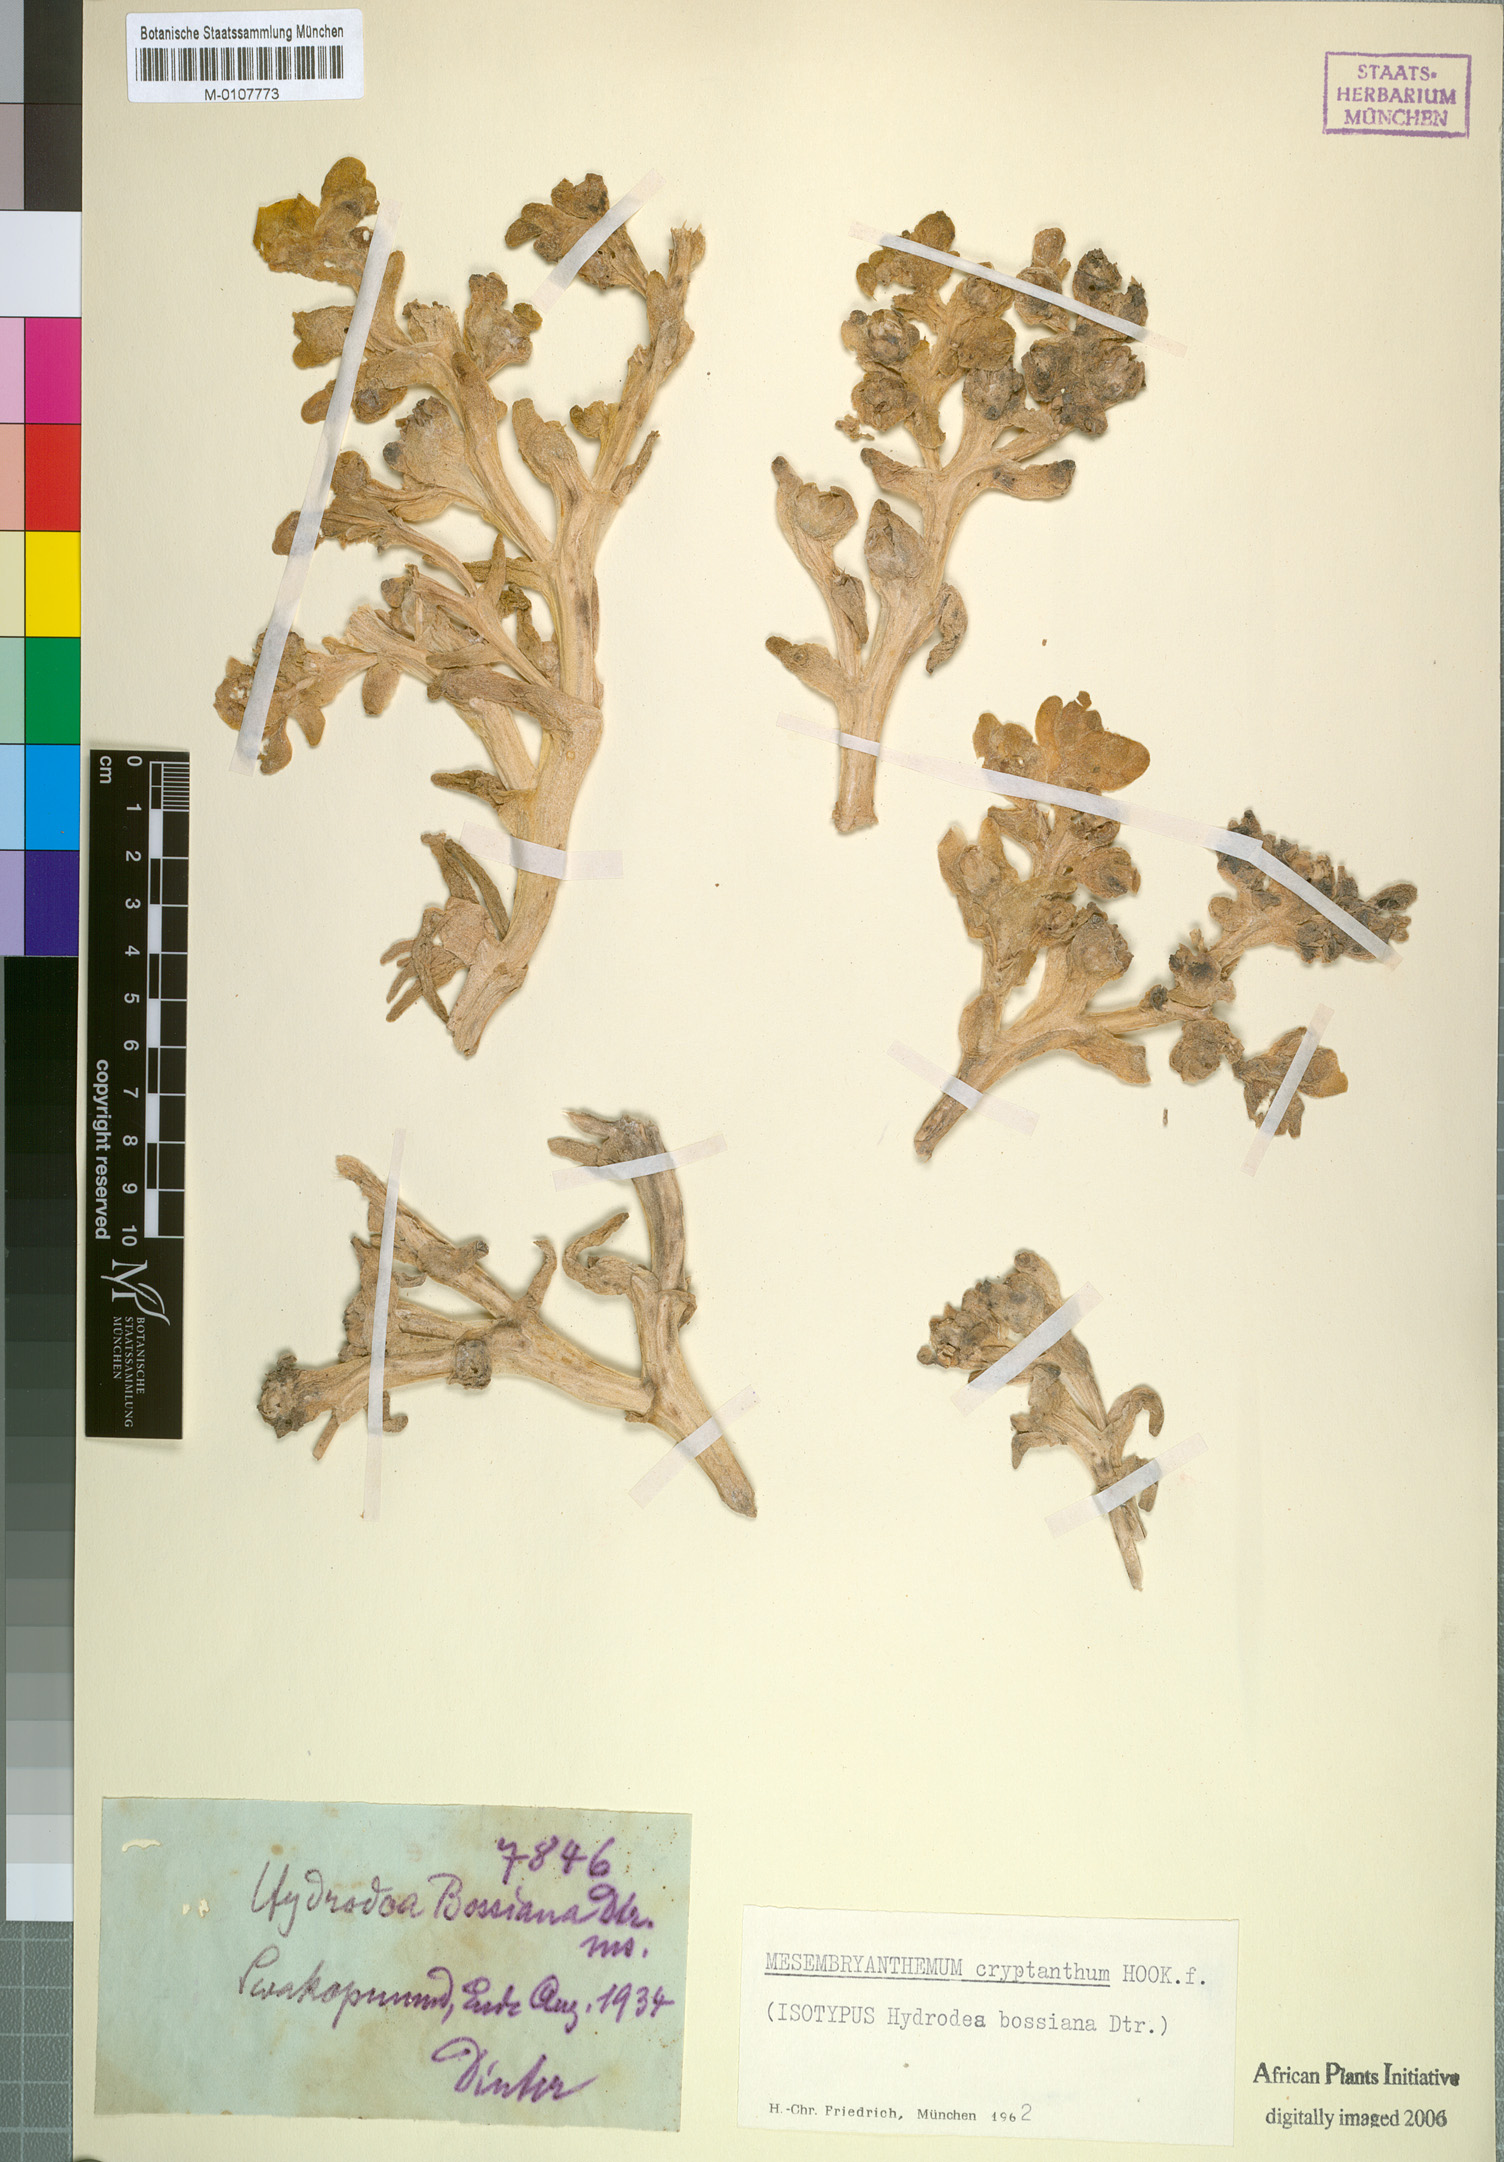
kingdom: Plantae
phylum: Tracheophyta
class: Magnoliopsida
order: Caryophyllales
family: Aizoaceae
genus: Mesembryanthemum
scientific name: Mesembryanthemum cryptanthum
